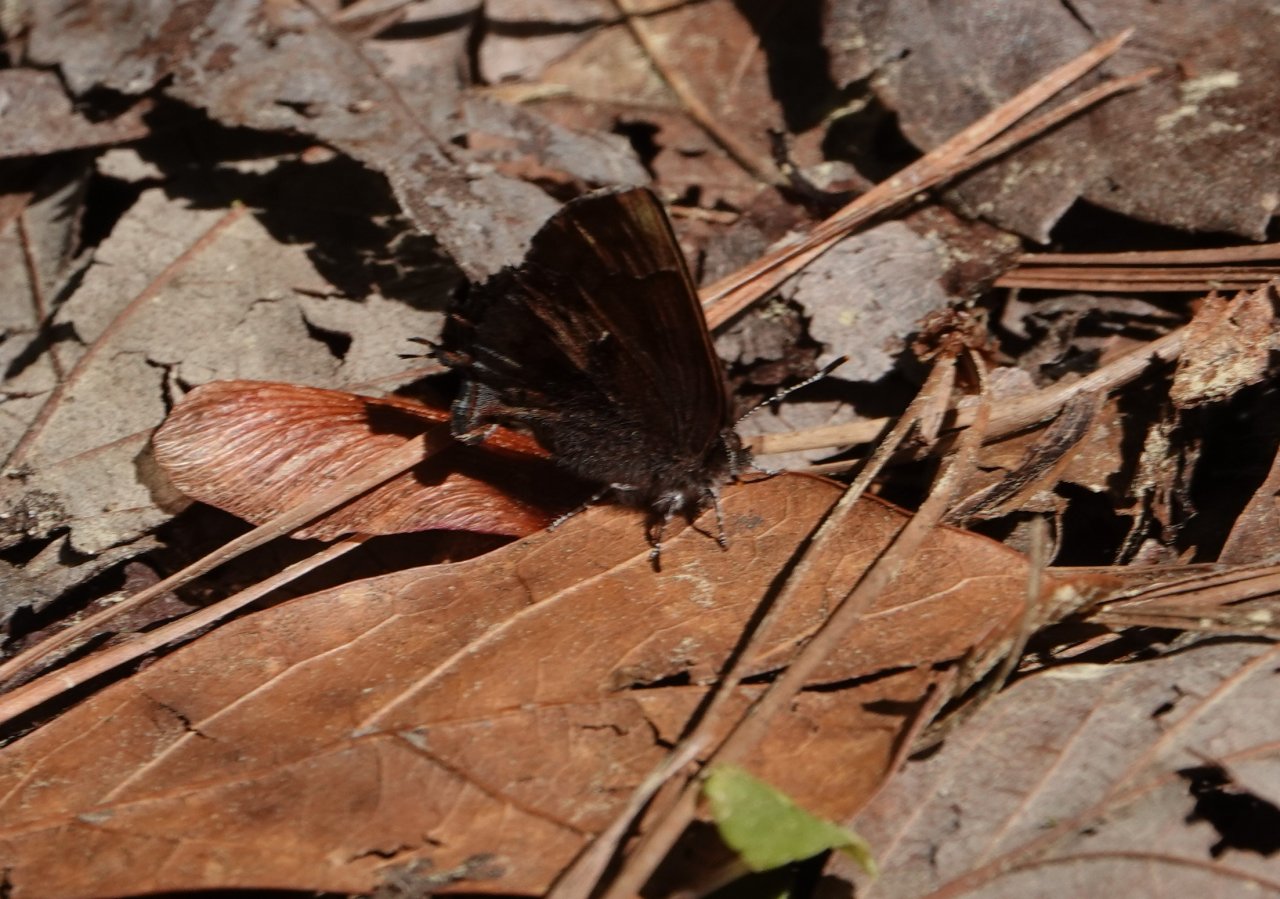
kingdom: Animalia
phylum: Arthropoda
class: Insecta
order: Lepidoptera
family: Lycaenidae
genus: Incisalia
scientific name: Incisalia henrici
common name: Henry's Elfin
